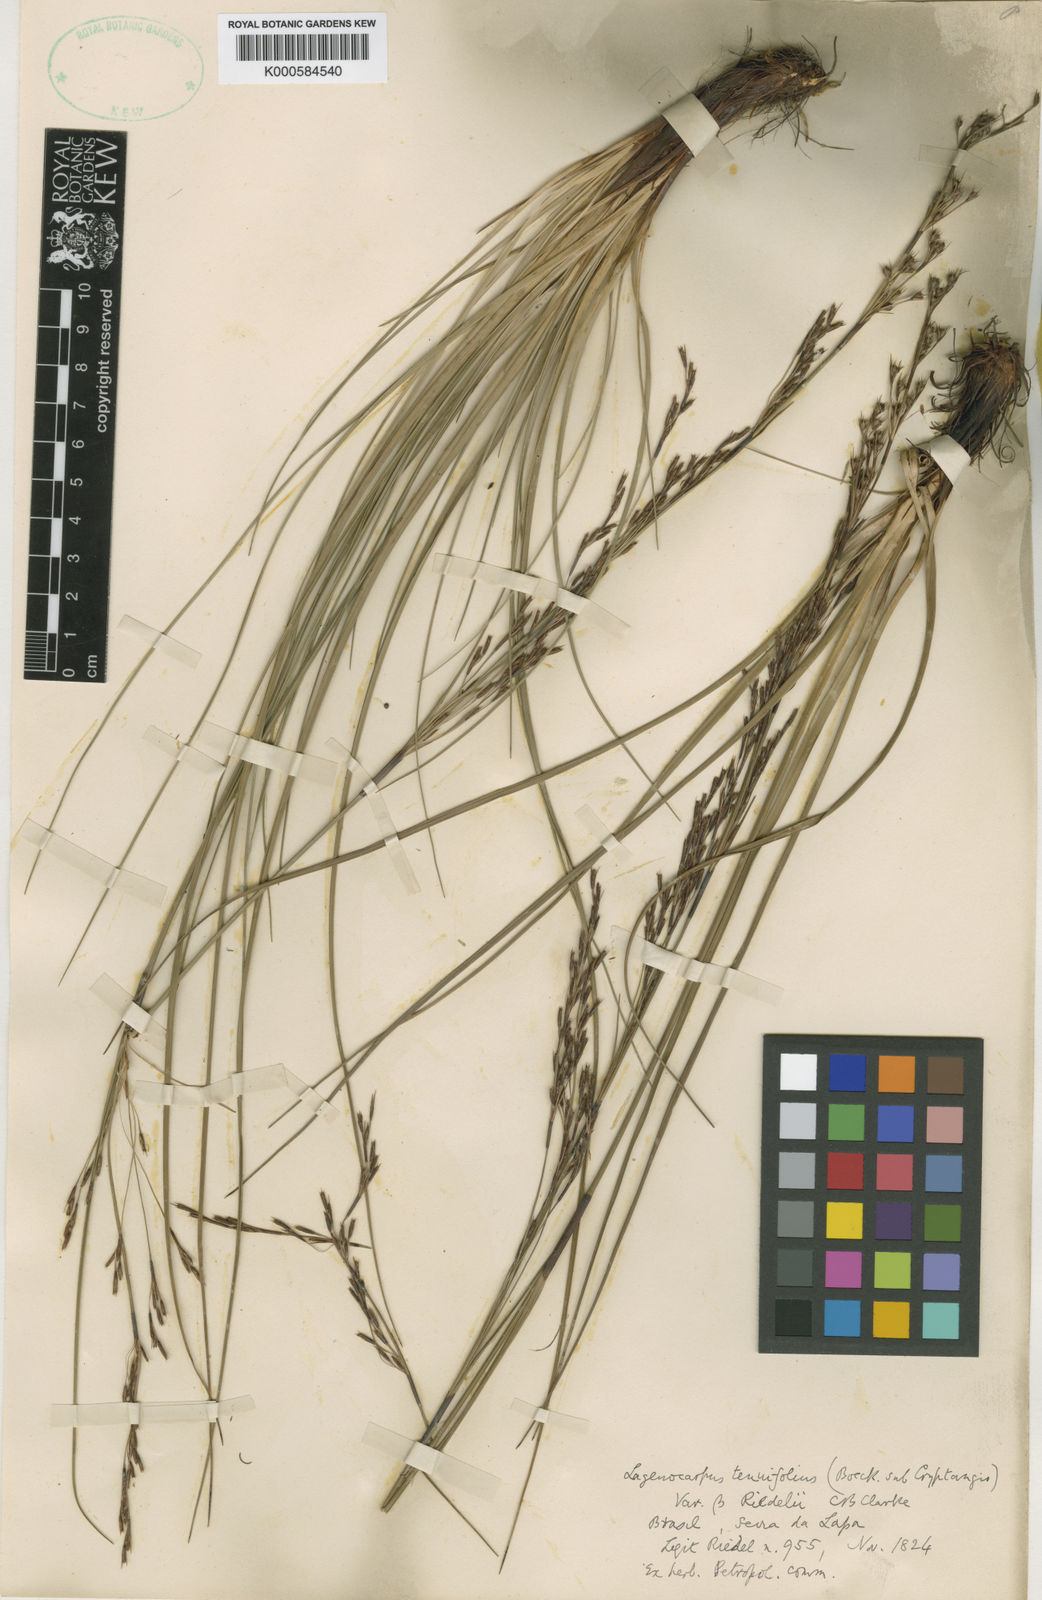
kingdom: Plantae
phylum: Tracheophyta
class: Liliopsida
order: Poales
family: Cyperaceae
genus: Lagenocarpus
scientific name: Lagenocarpus rigidus
